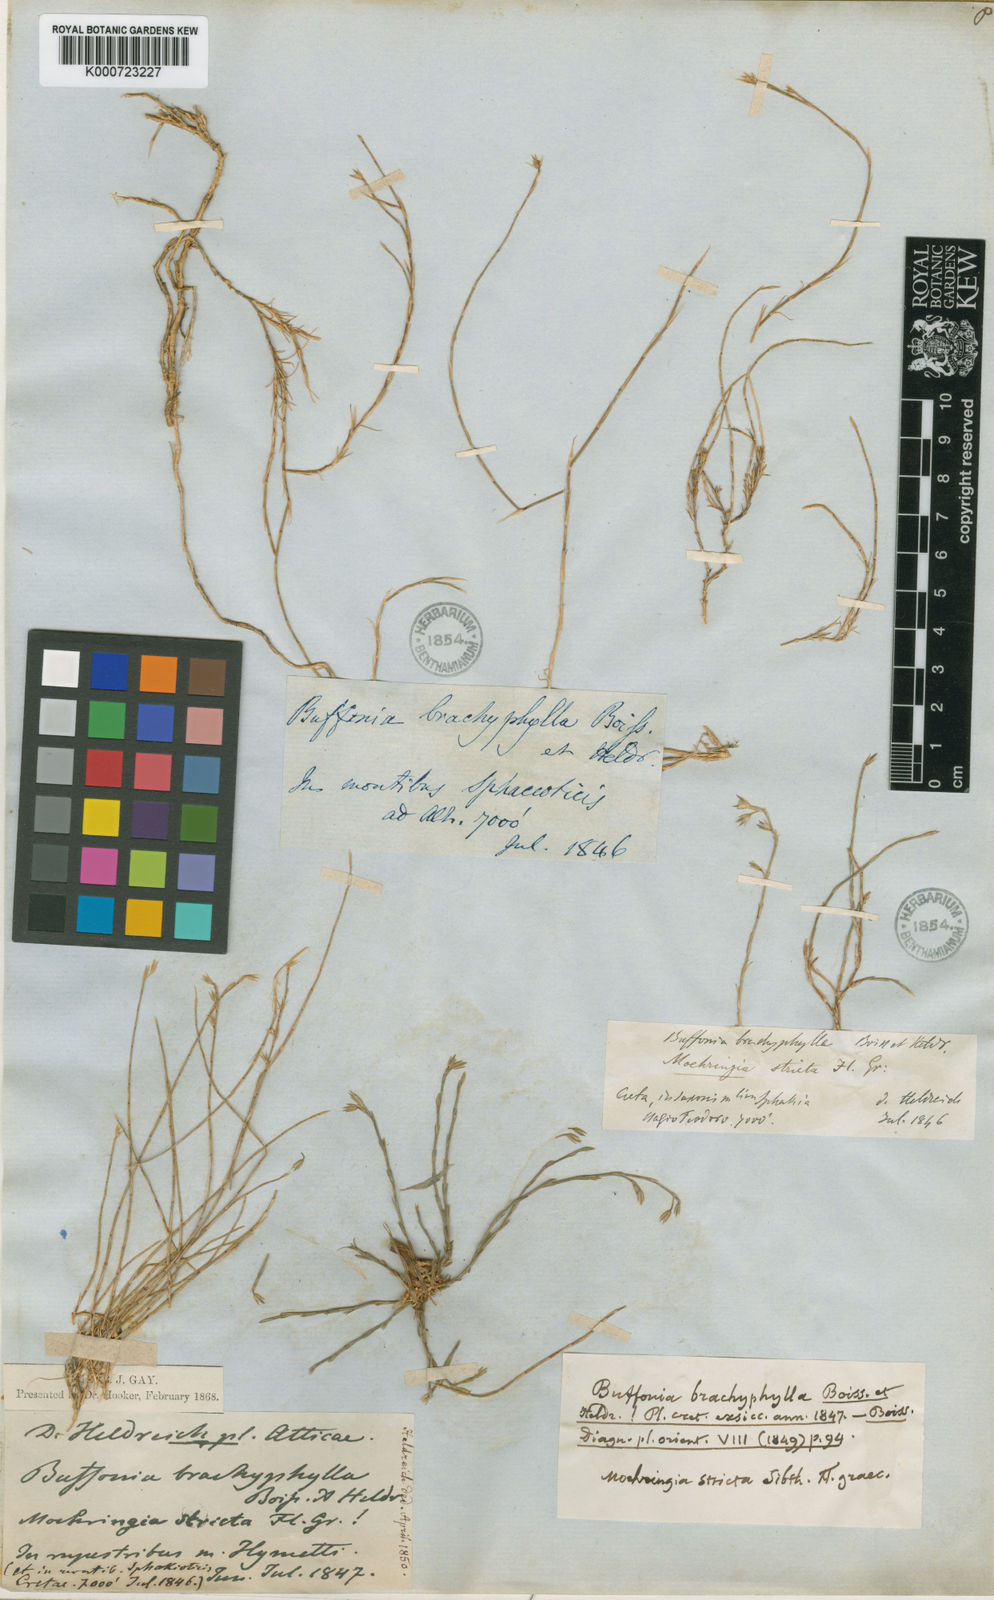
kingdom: Plantae
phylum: Tracheophyta
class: Magnoliopsida
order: Caryophyllales
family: Caryophyllaceae
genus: Bufonia
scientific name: Bufonia stricta
